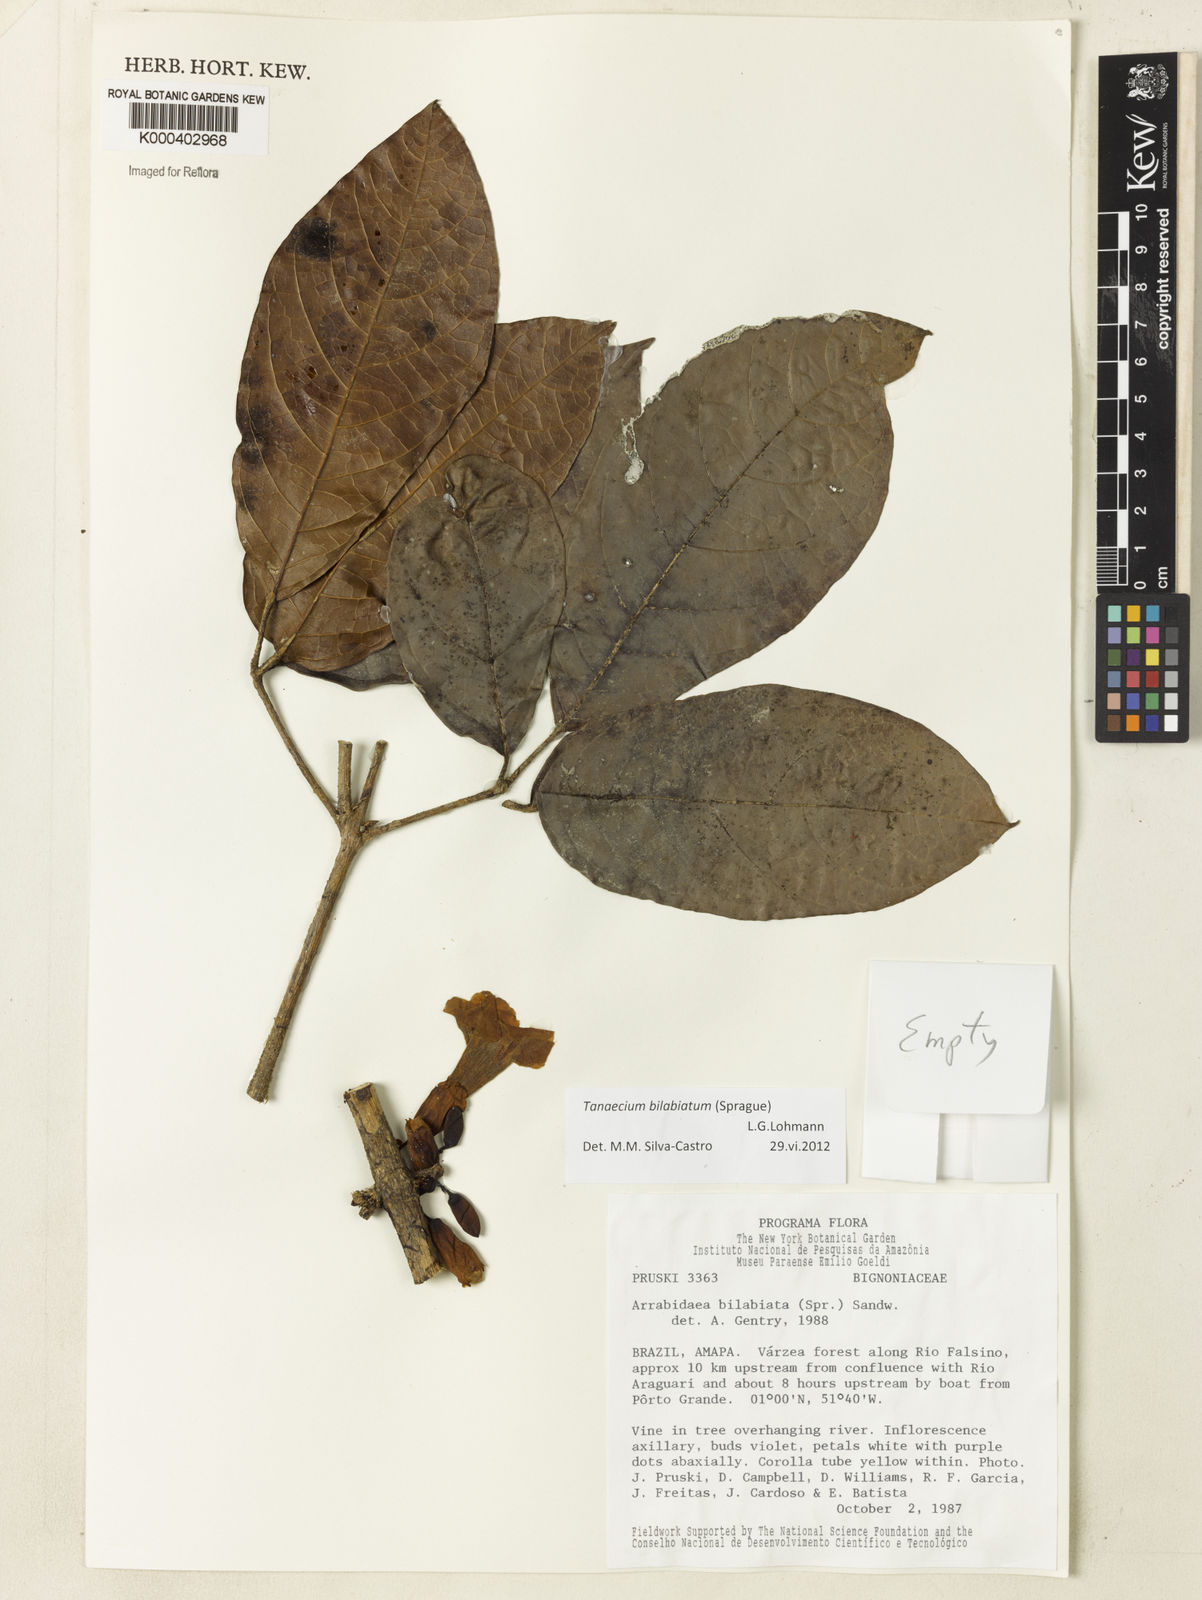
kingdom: Plantae
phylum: Tracheophyta
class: Magnoliopsida
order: Lamiales
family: Bignoniaceae
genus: Tanaecium
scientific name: Tanaecium bilabiatum
